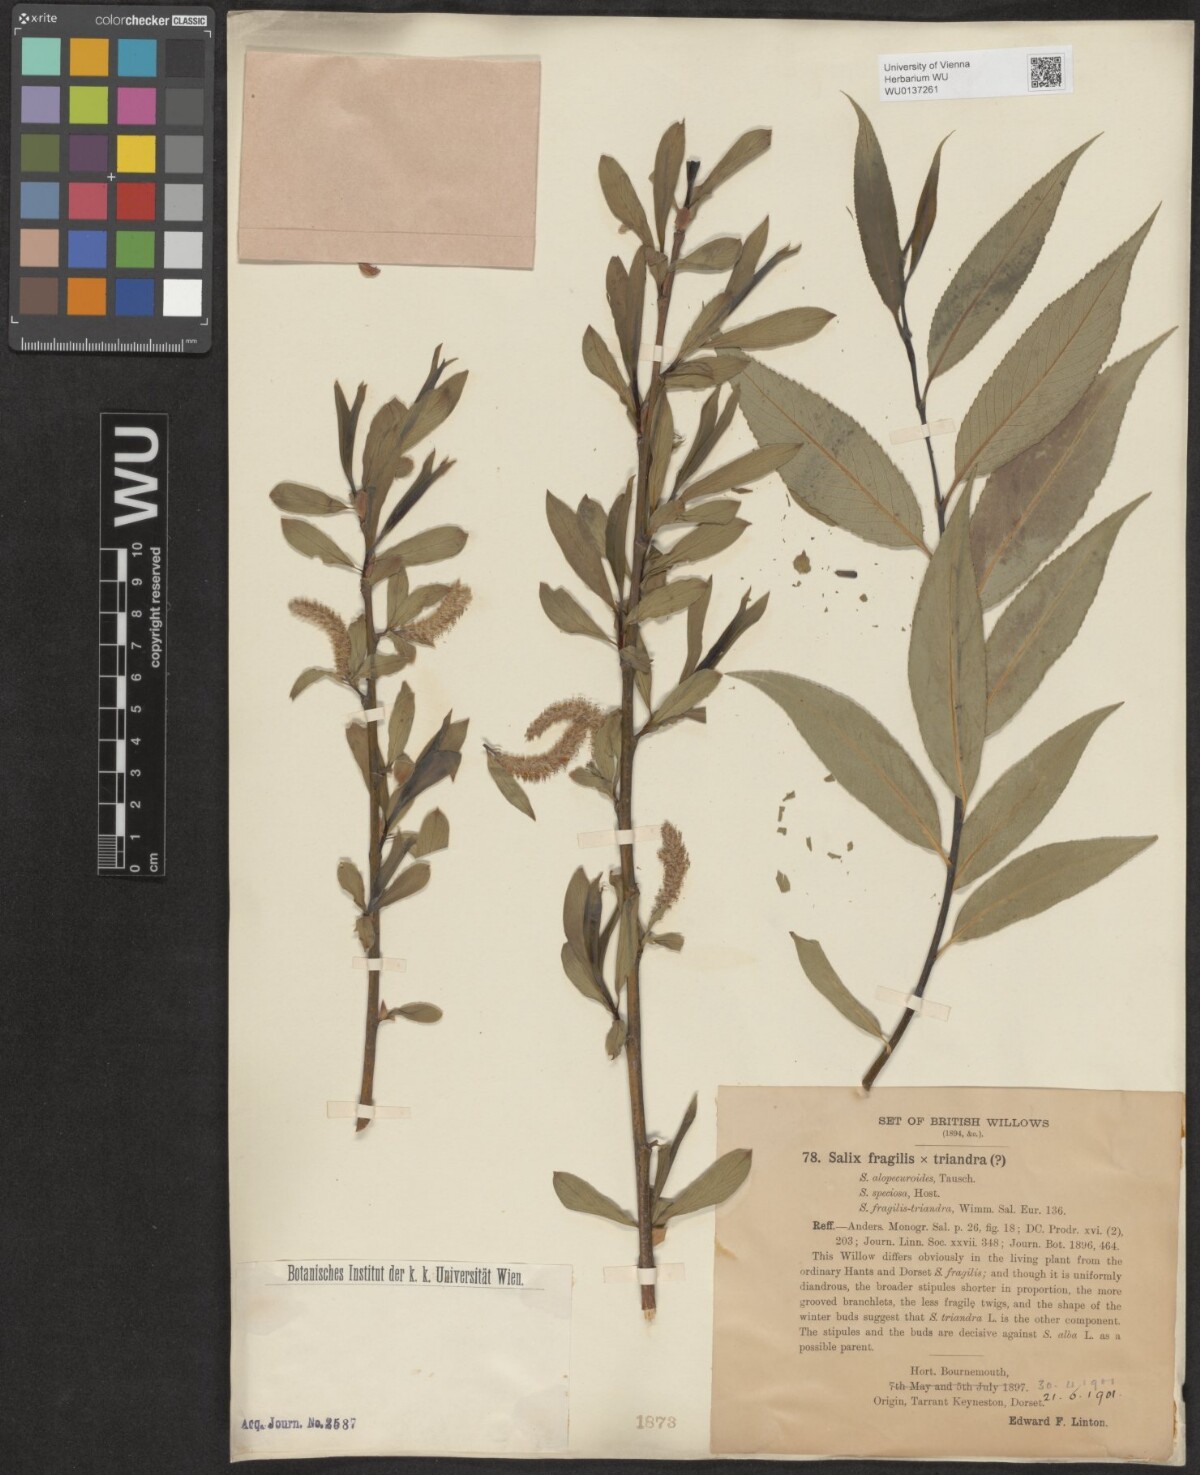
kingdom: Plantae
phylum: Tracheophyta
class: Magnoliopsida
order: Malpighiales
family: Salicaceae
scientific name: Salicaceae
